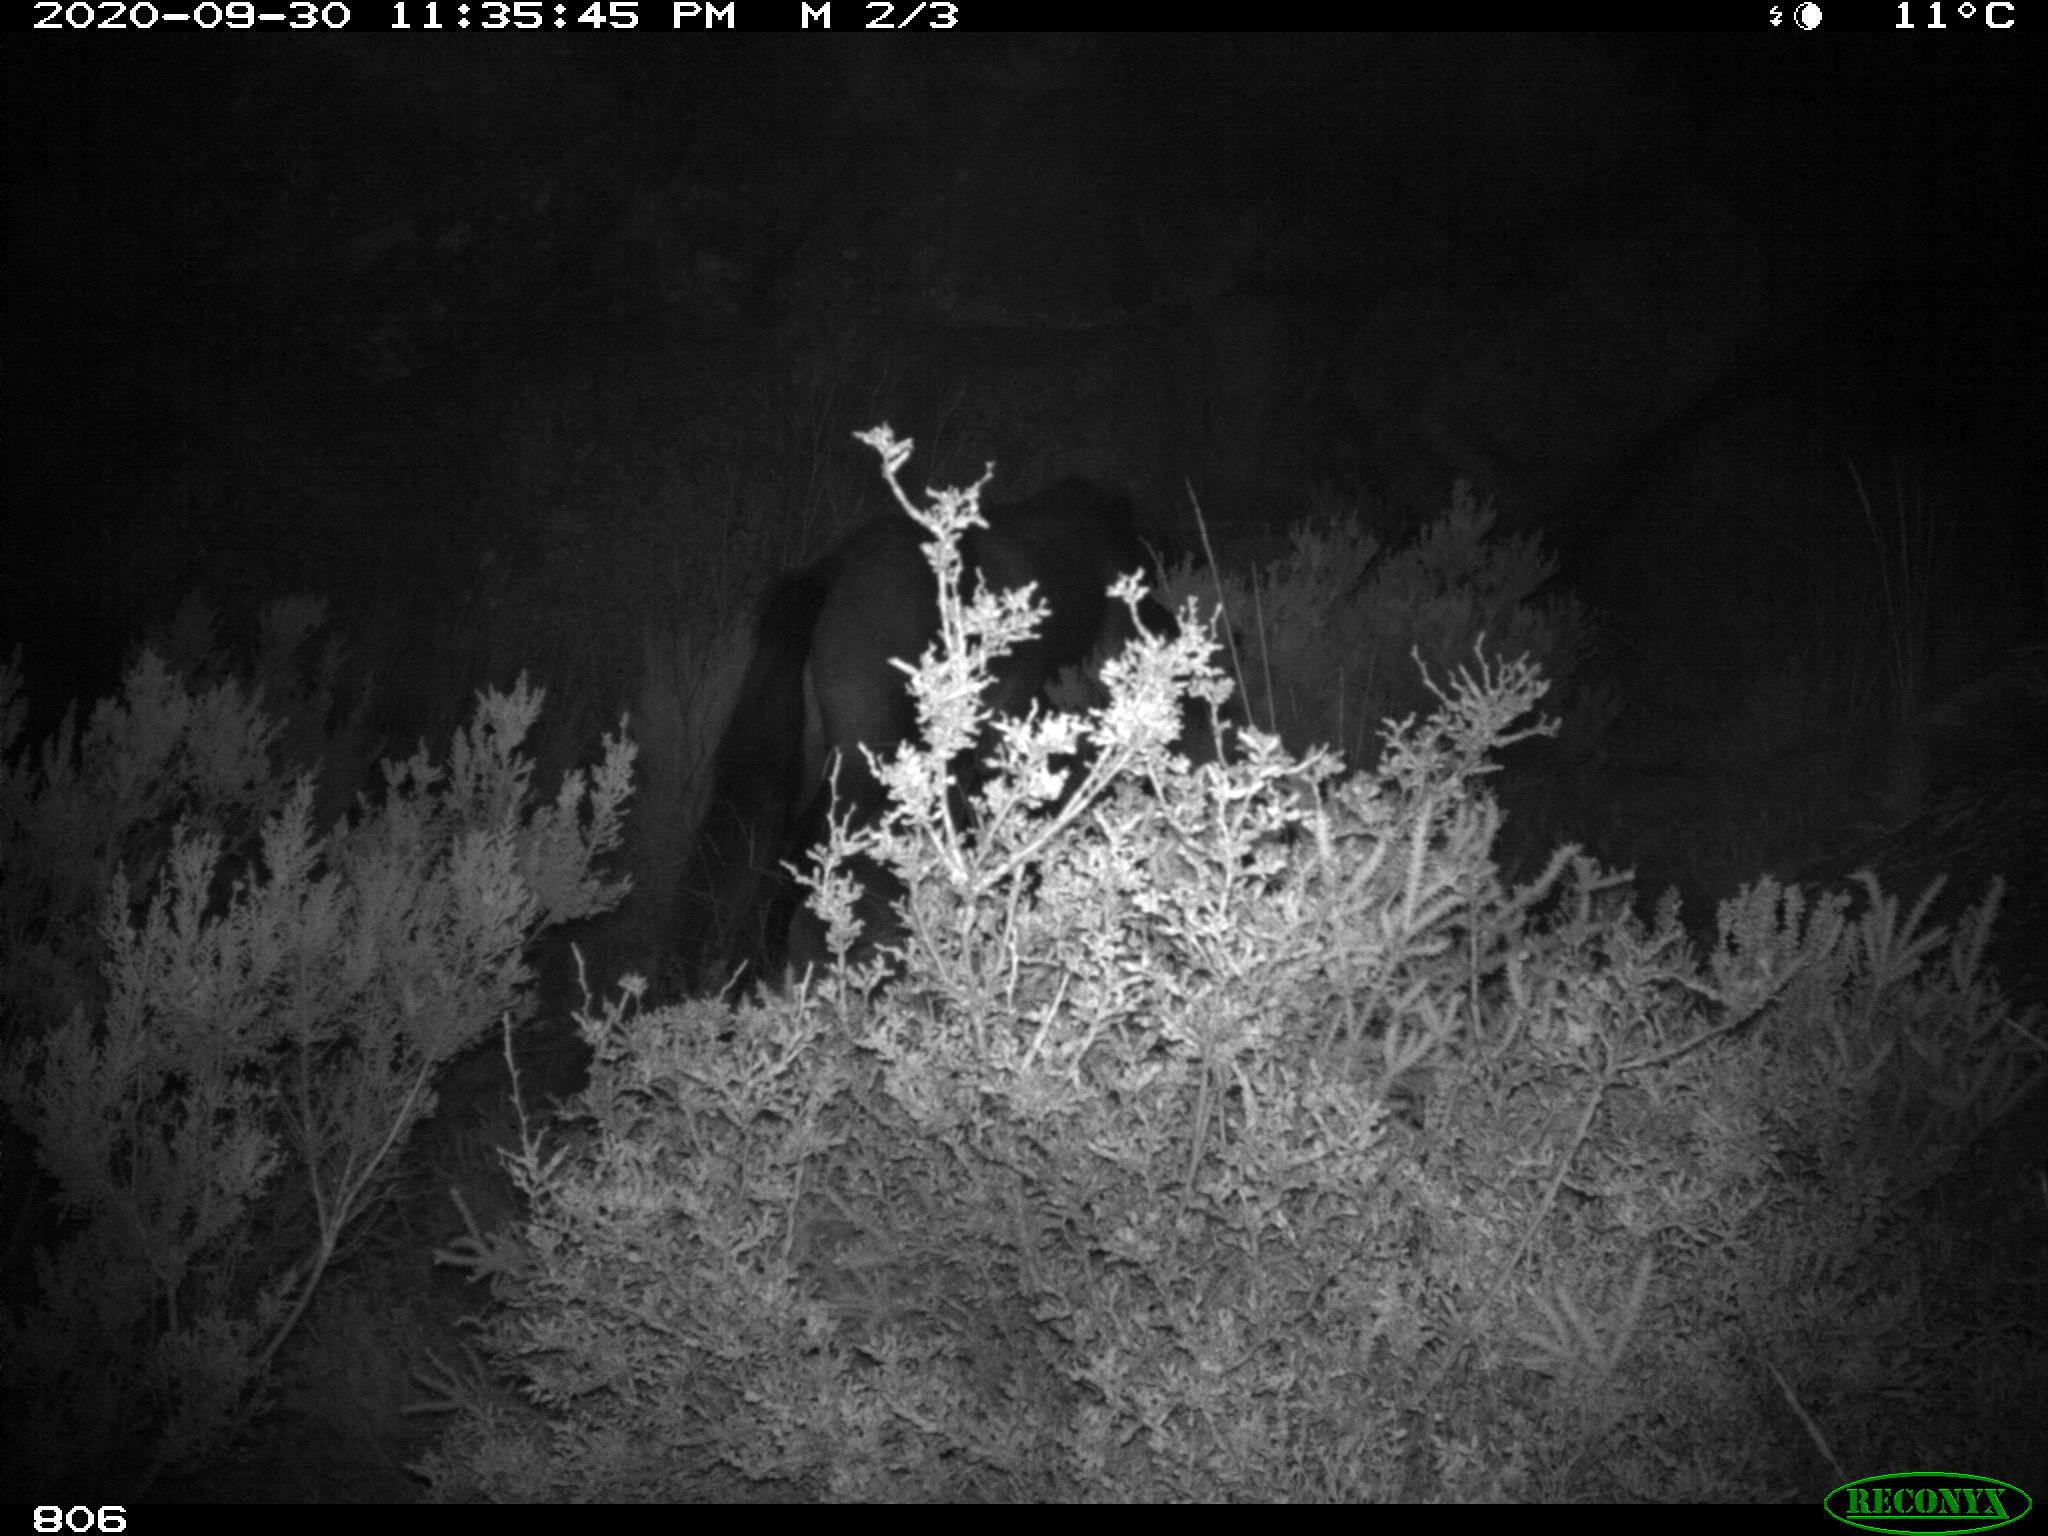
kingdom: Animalia
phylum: Chordata
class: Mammalia
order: Perissodactyla
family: Equidae
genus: Equus
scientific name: Equus caballus
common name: Horse
